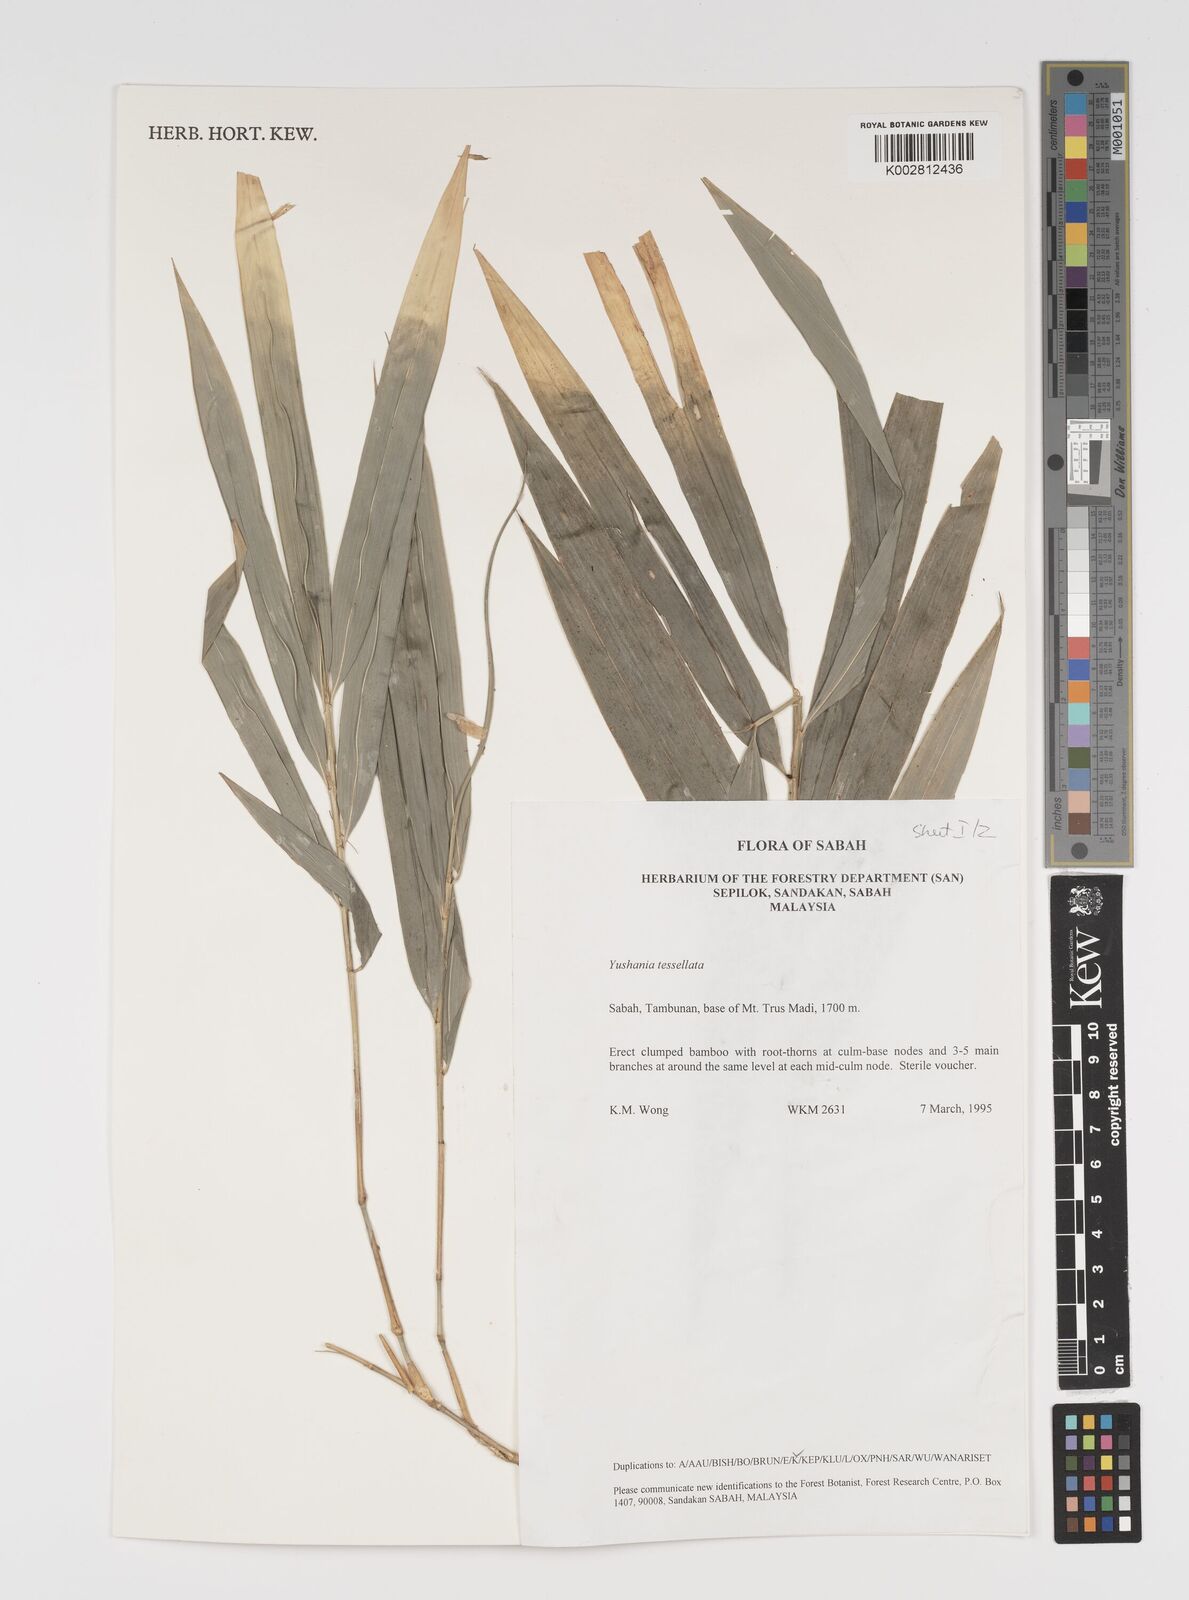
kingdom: Plantae
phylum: Tracheophyta
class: Liliopsida
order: Poales
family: Poaceae
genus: Yushania
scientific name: Yushania tessellata
